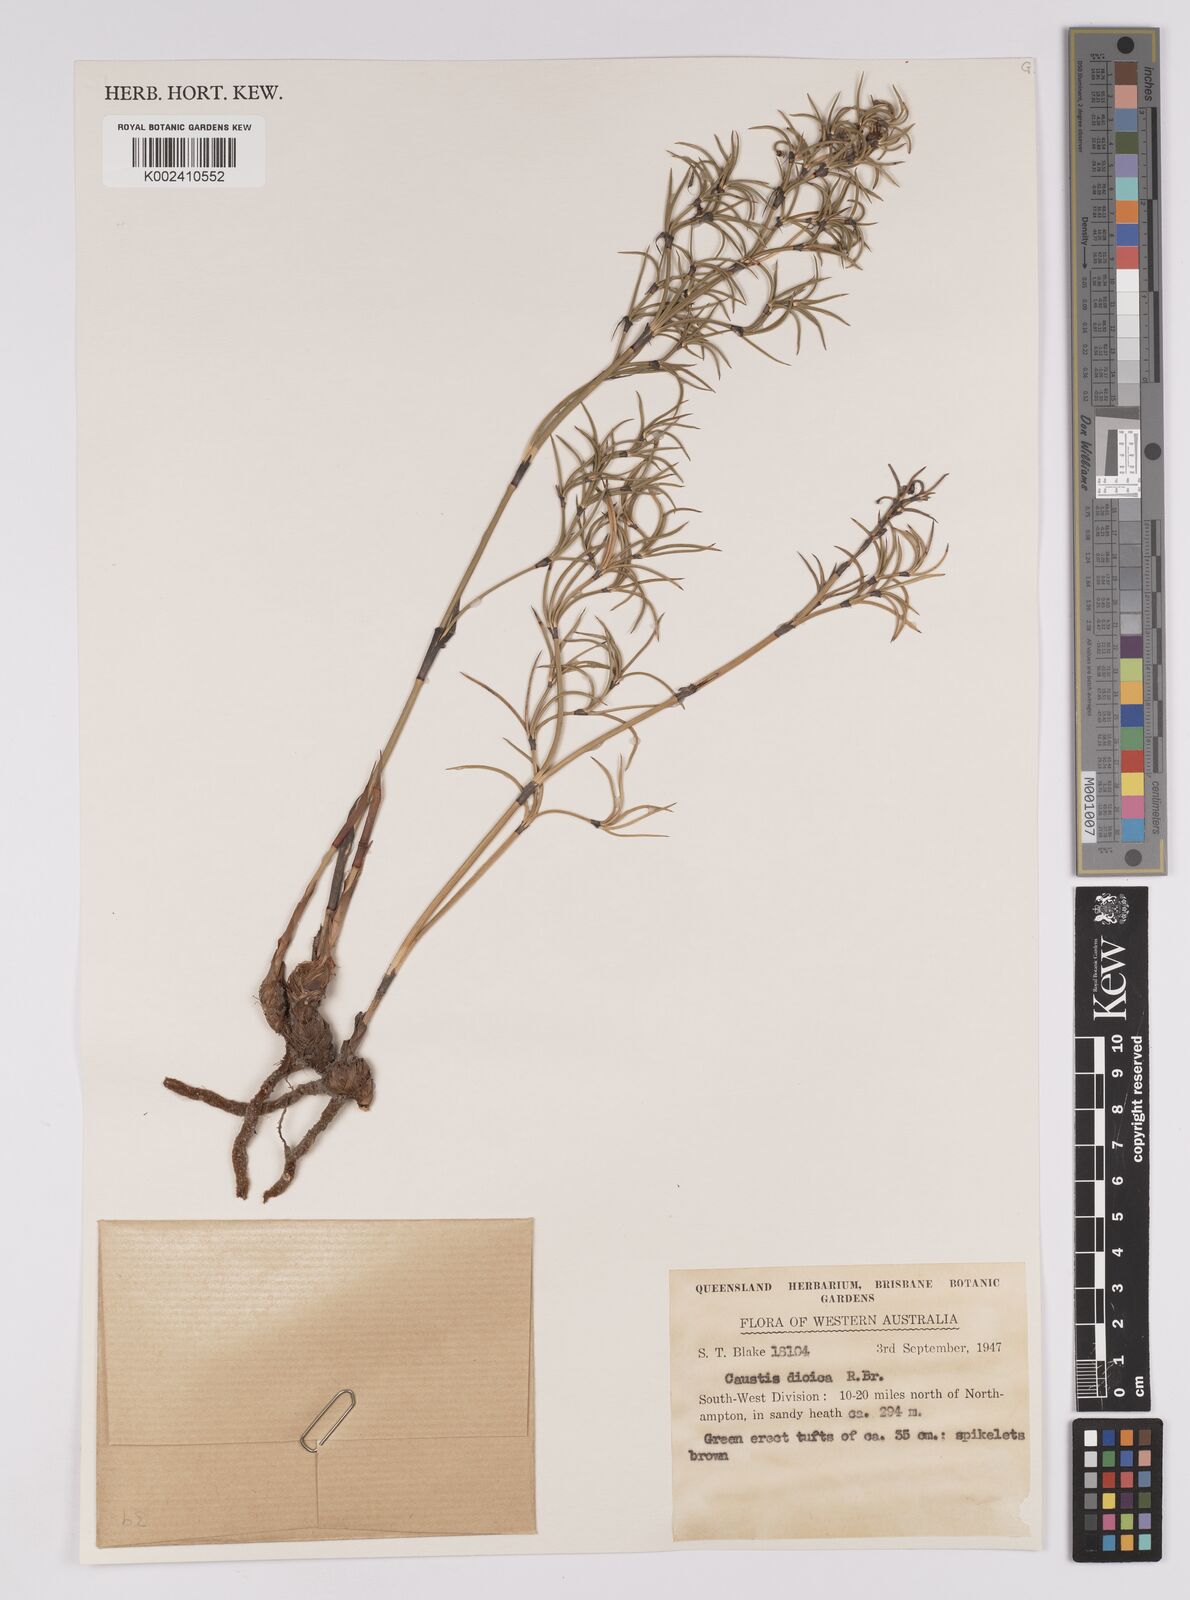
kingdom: Plantae
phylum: Tracheophyta
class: Liliopsida
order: Poales
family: Cyperaceae
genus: Caustis
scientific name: Caustis dioica
